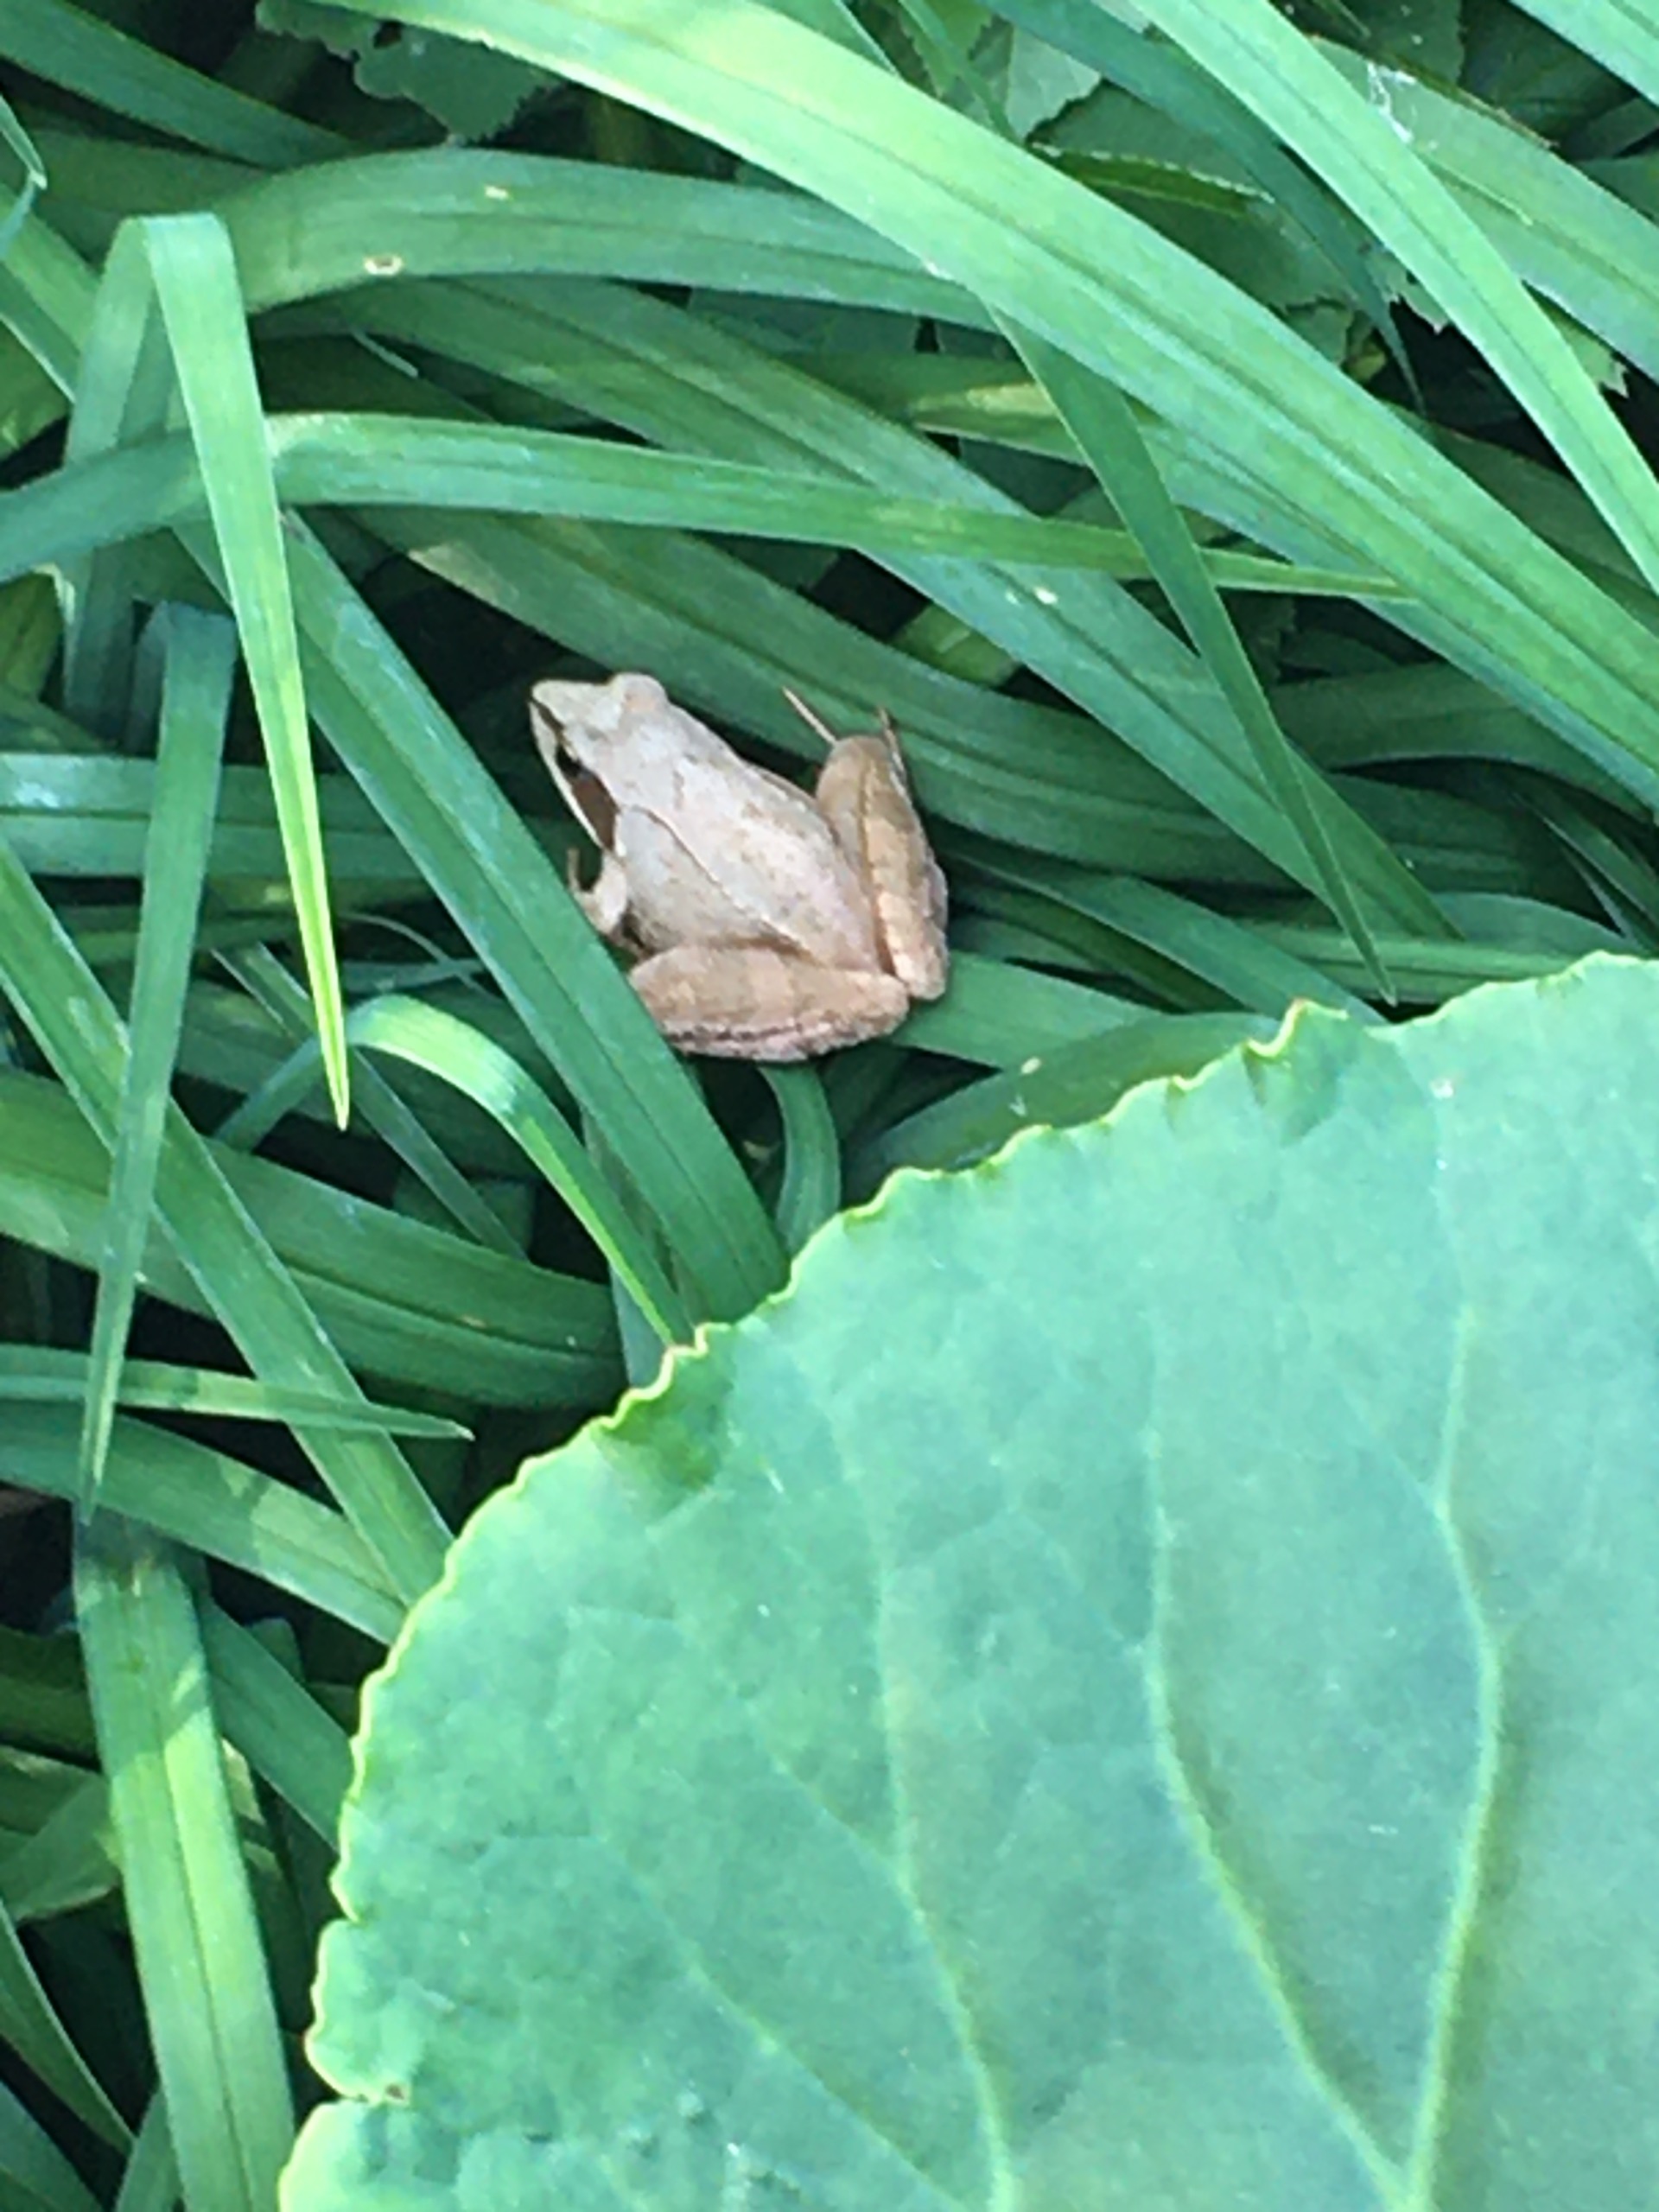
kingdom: Animalia
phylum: Chordata
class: Amphibia
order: Anura
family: Ranidae
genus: Rana
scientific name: Rana dalmatina
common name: Springfrø
